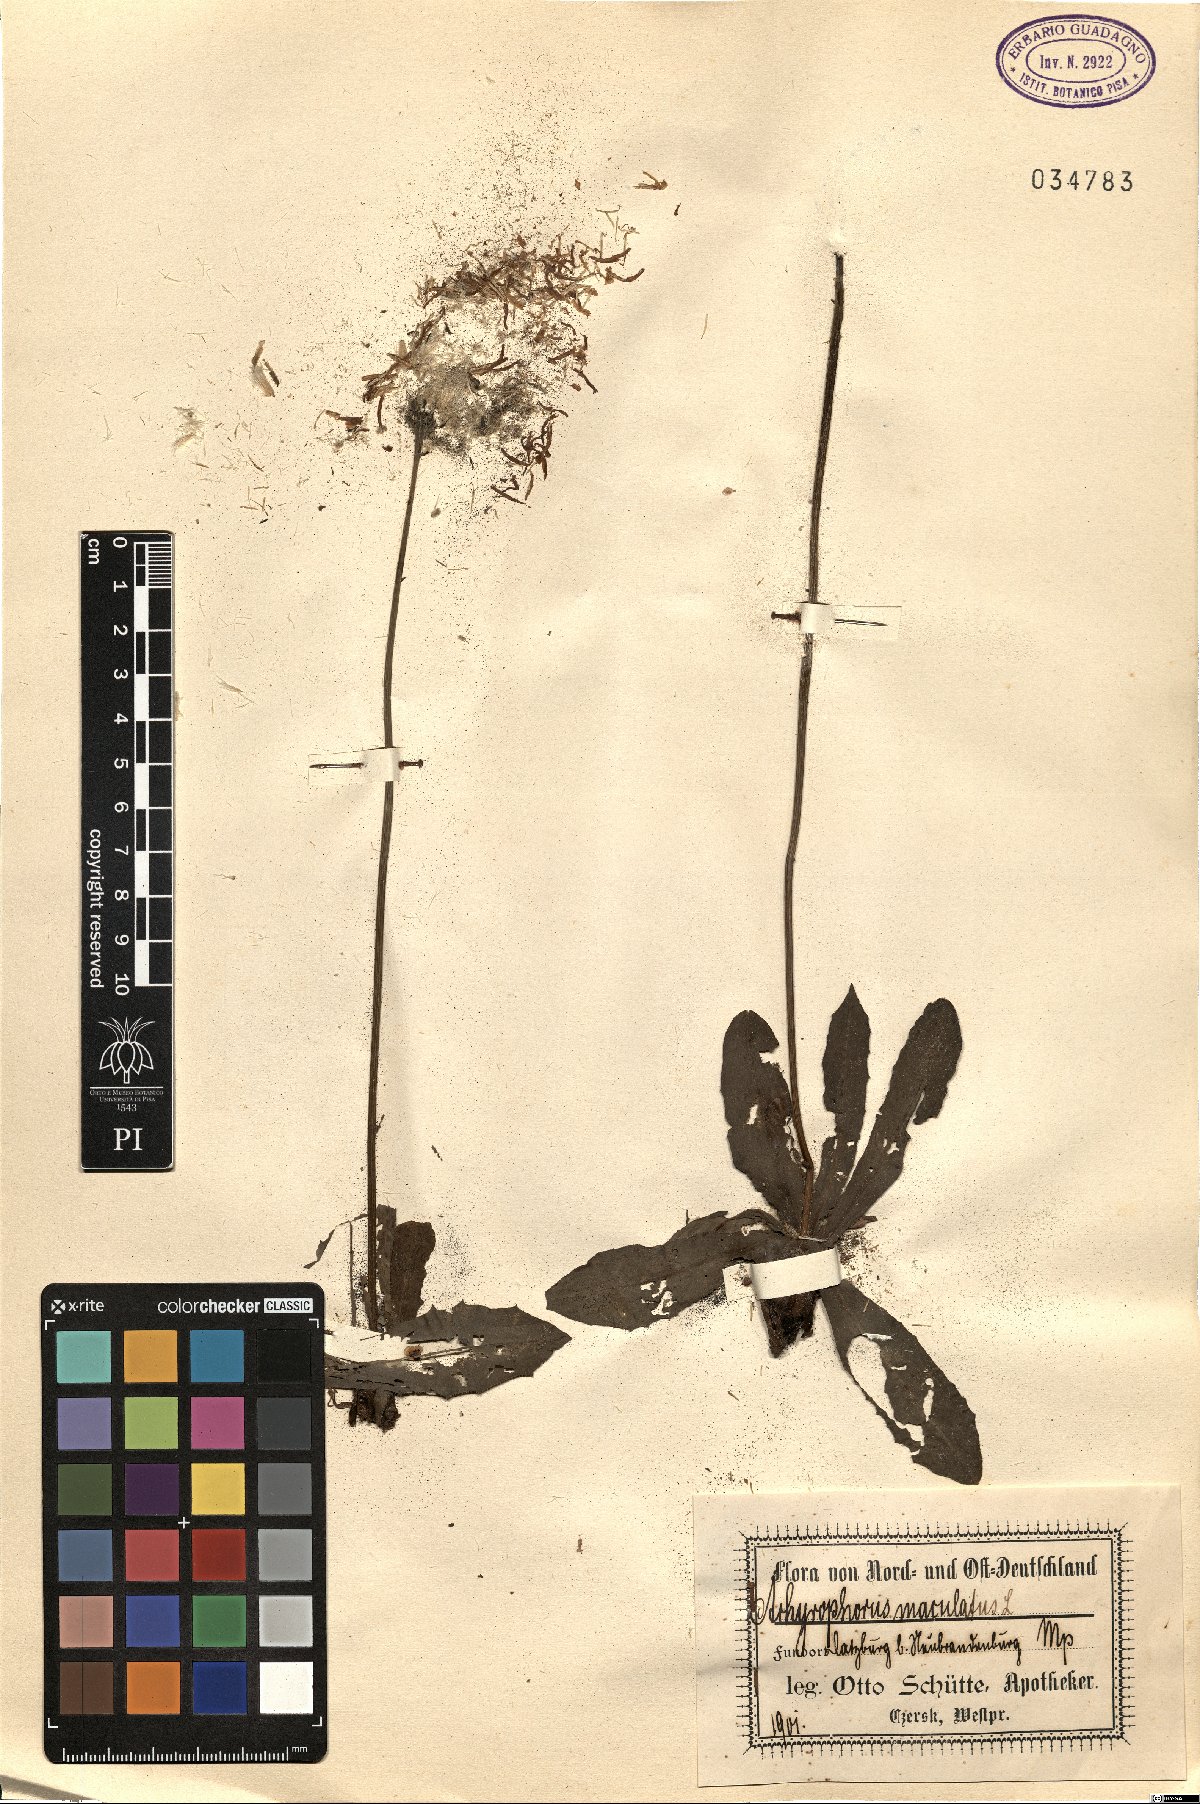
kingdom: Plantae
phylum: Tracheophyta
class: Magnoliopsida
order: Asterales
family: Asteraceae
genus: Trommsdorffia
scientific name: Trommsdorffia maculata
